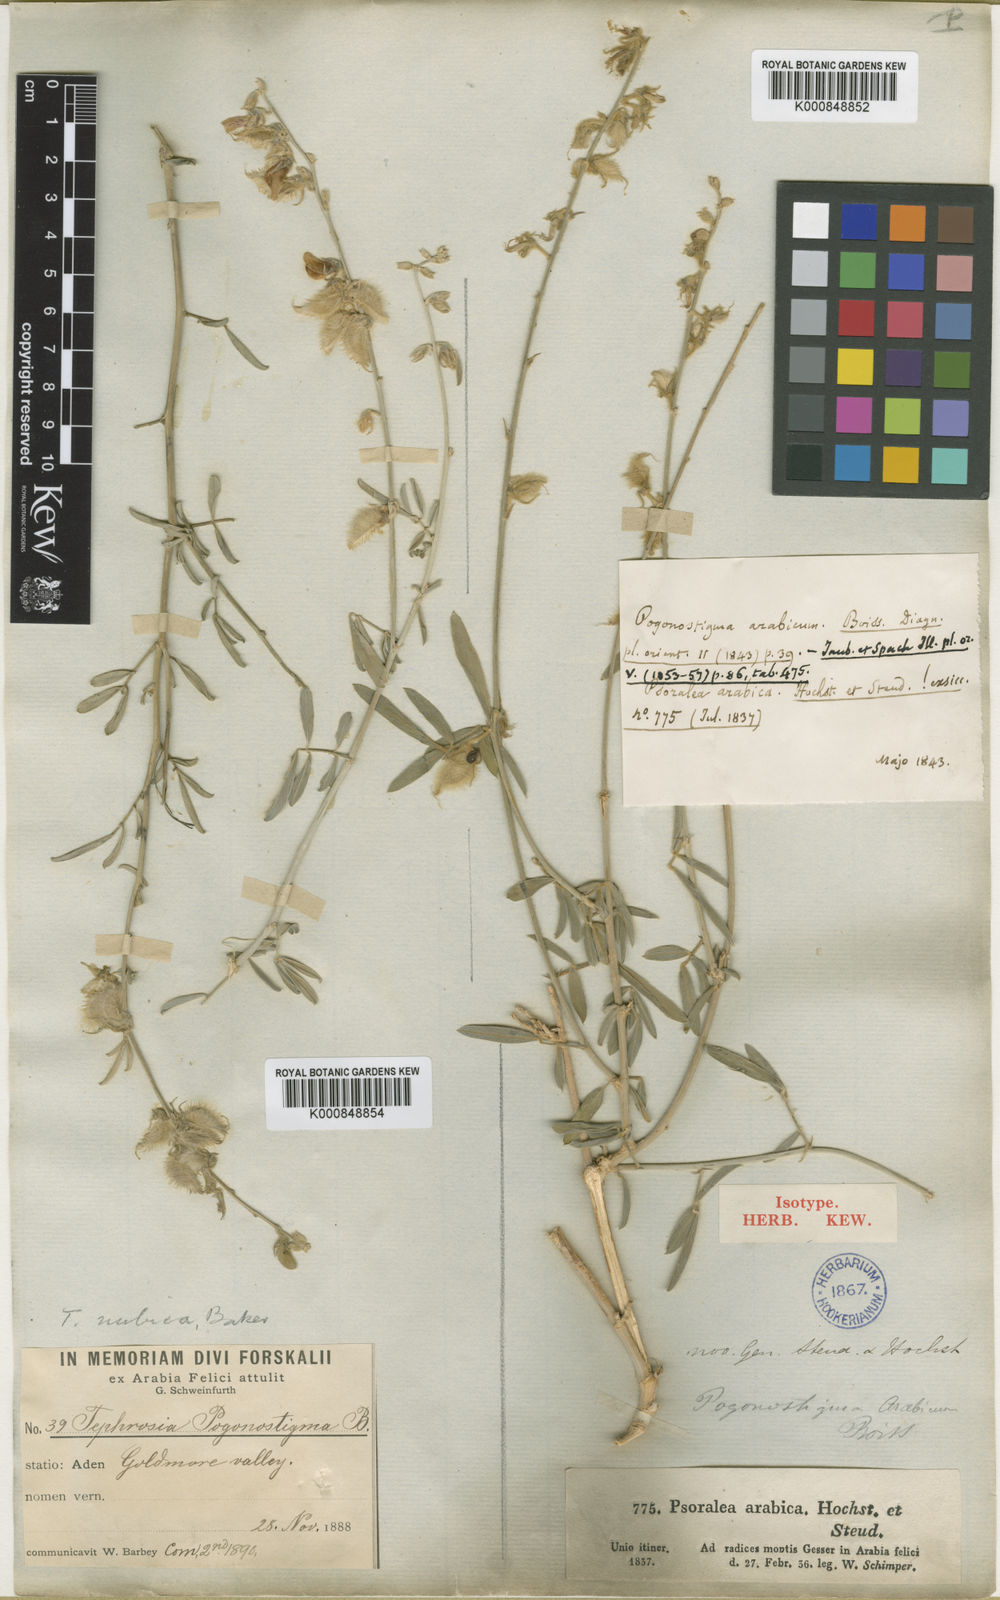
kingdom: Plantae
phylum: Tracheophyta
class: Magnoliopsida
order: Fabales
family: Fabaceae
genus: Tephrosia
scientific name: Tephrosia nubica
